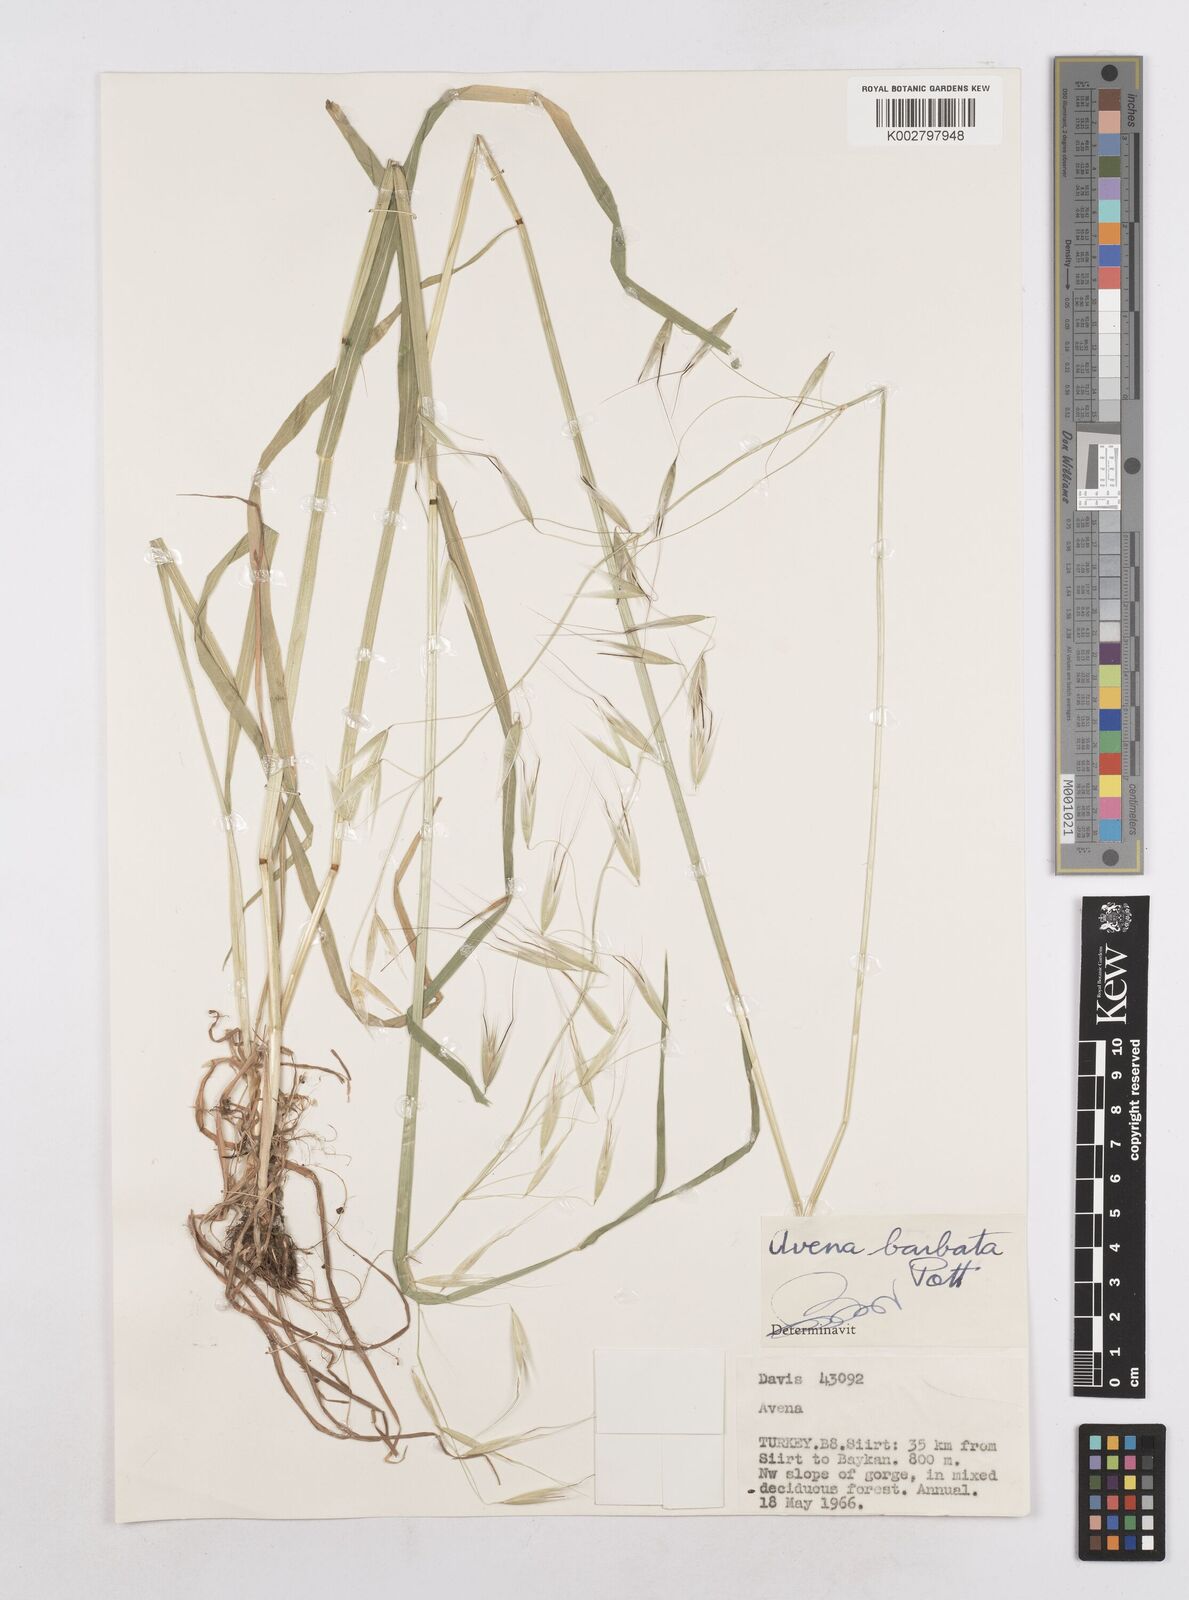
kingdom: Plantae
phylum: Tracheophyta
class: Liliopsida
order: Poales
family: Poaceae
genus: Avena
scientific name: Avena
